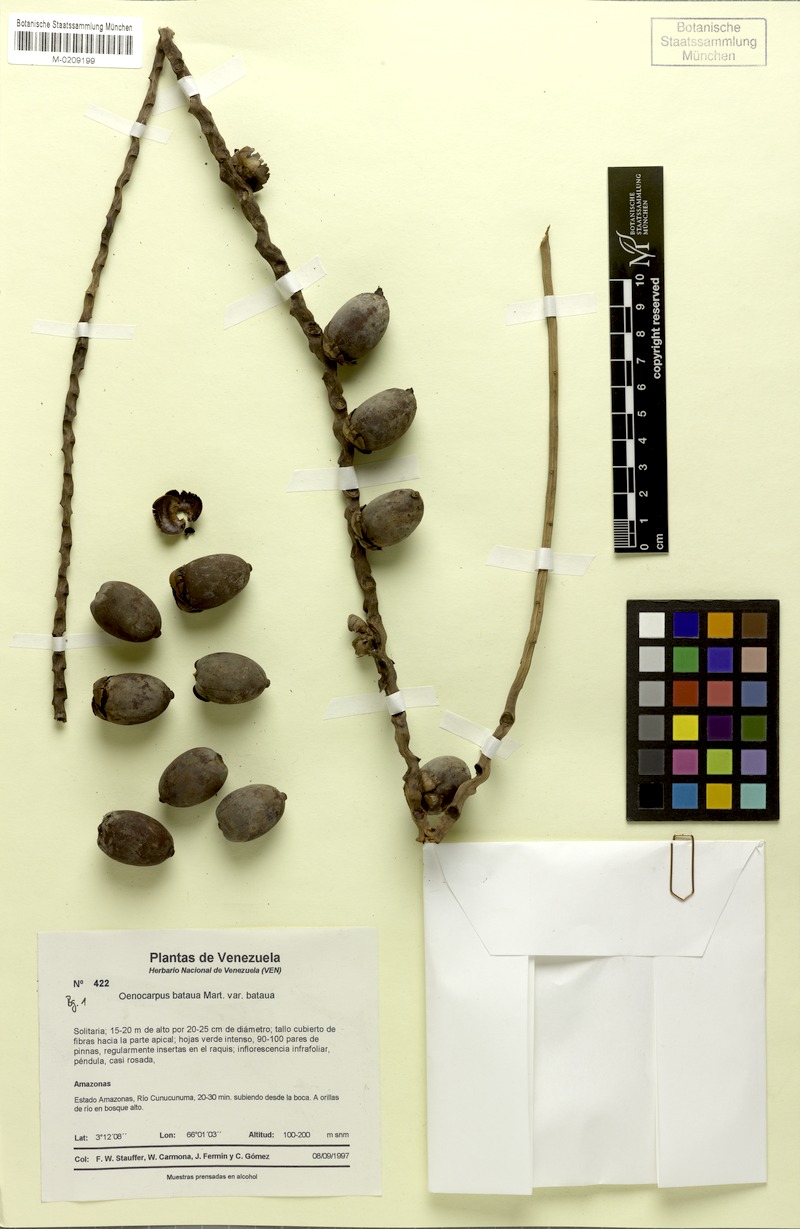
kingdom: Plantae
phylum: Tracheophyta
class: Liliopsida
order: Arecales
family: Arecaceae
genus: Oenocarpus
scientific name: Oenocarpus bataua
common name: Bataua palm
